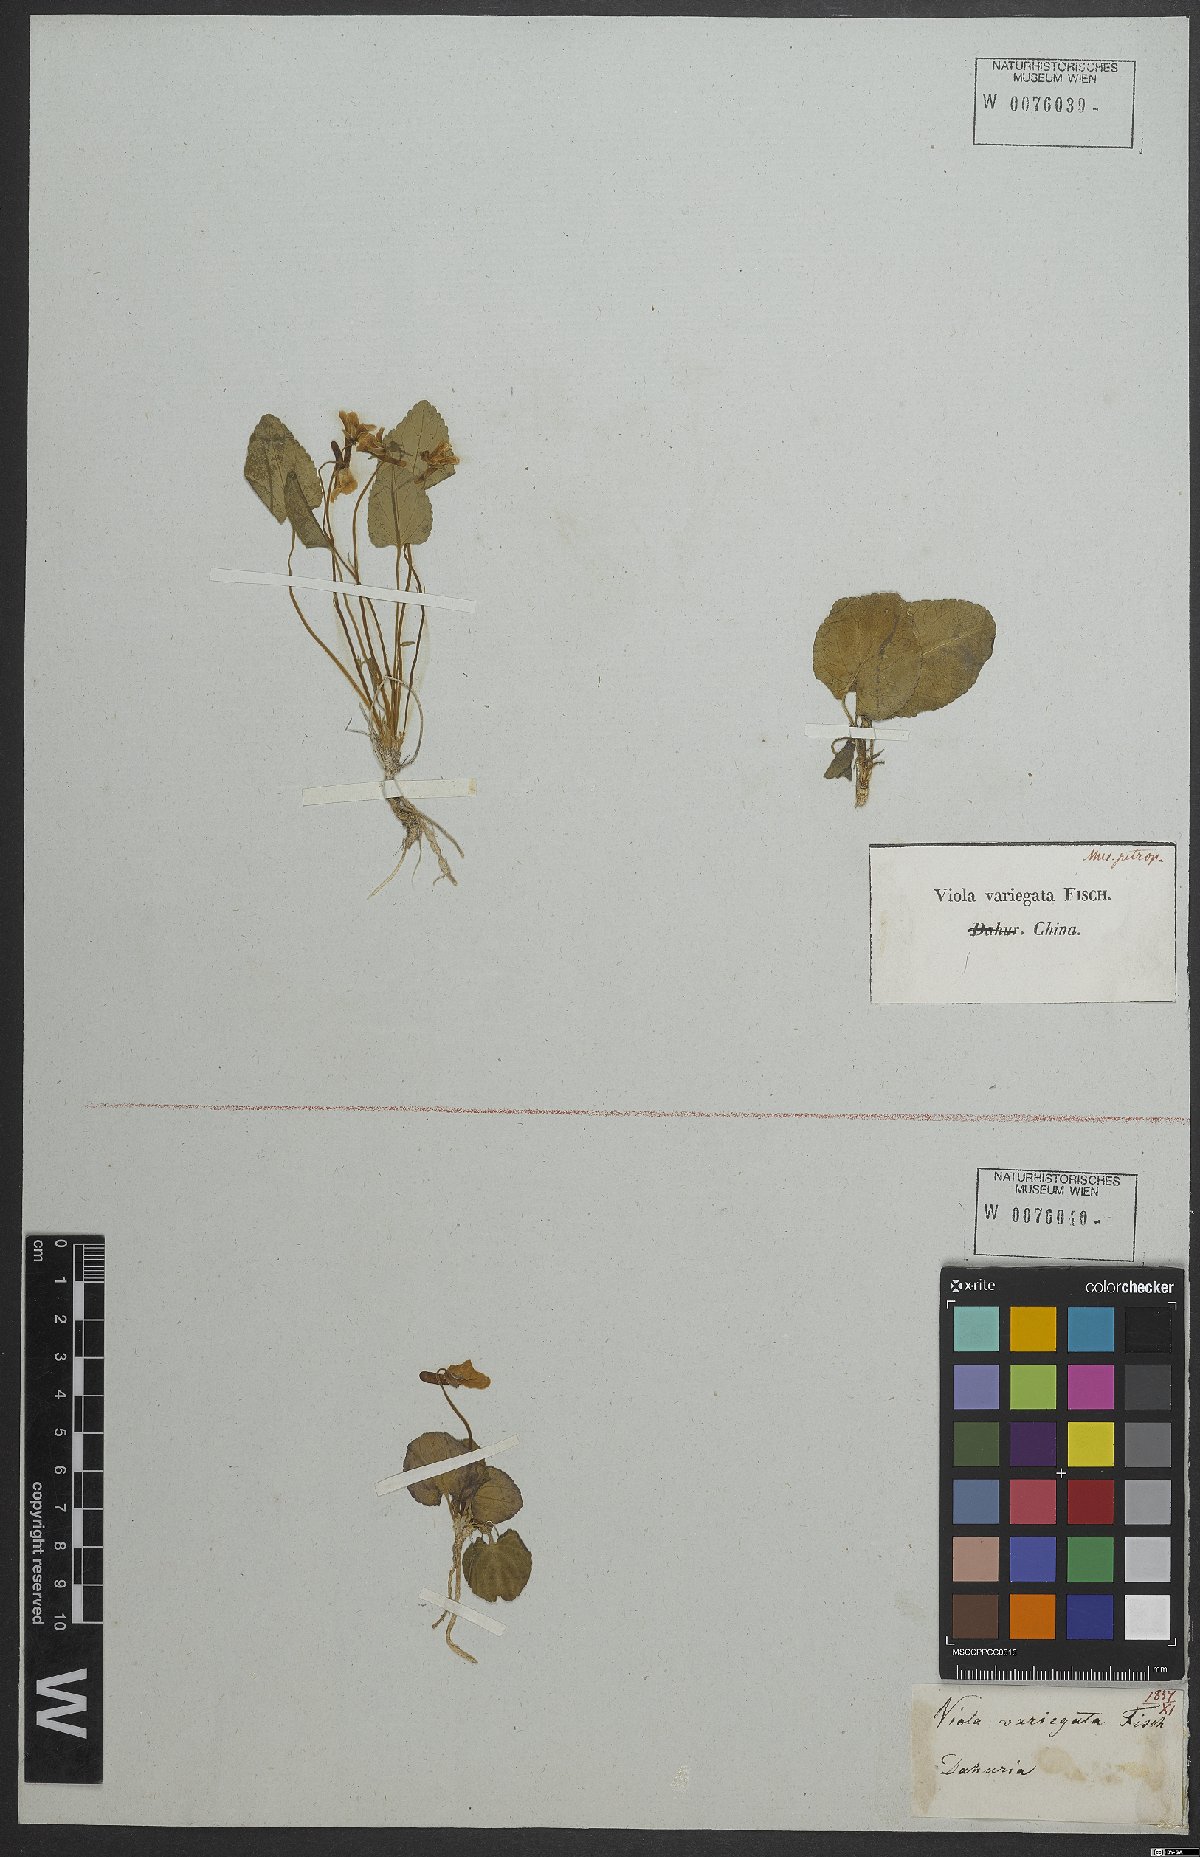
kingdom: Plantae
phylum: Tracheophyta
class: Magnoliopsida
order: Malpighiales
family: Violaceae
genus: Viola
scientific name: Viola variegata
